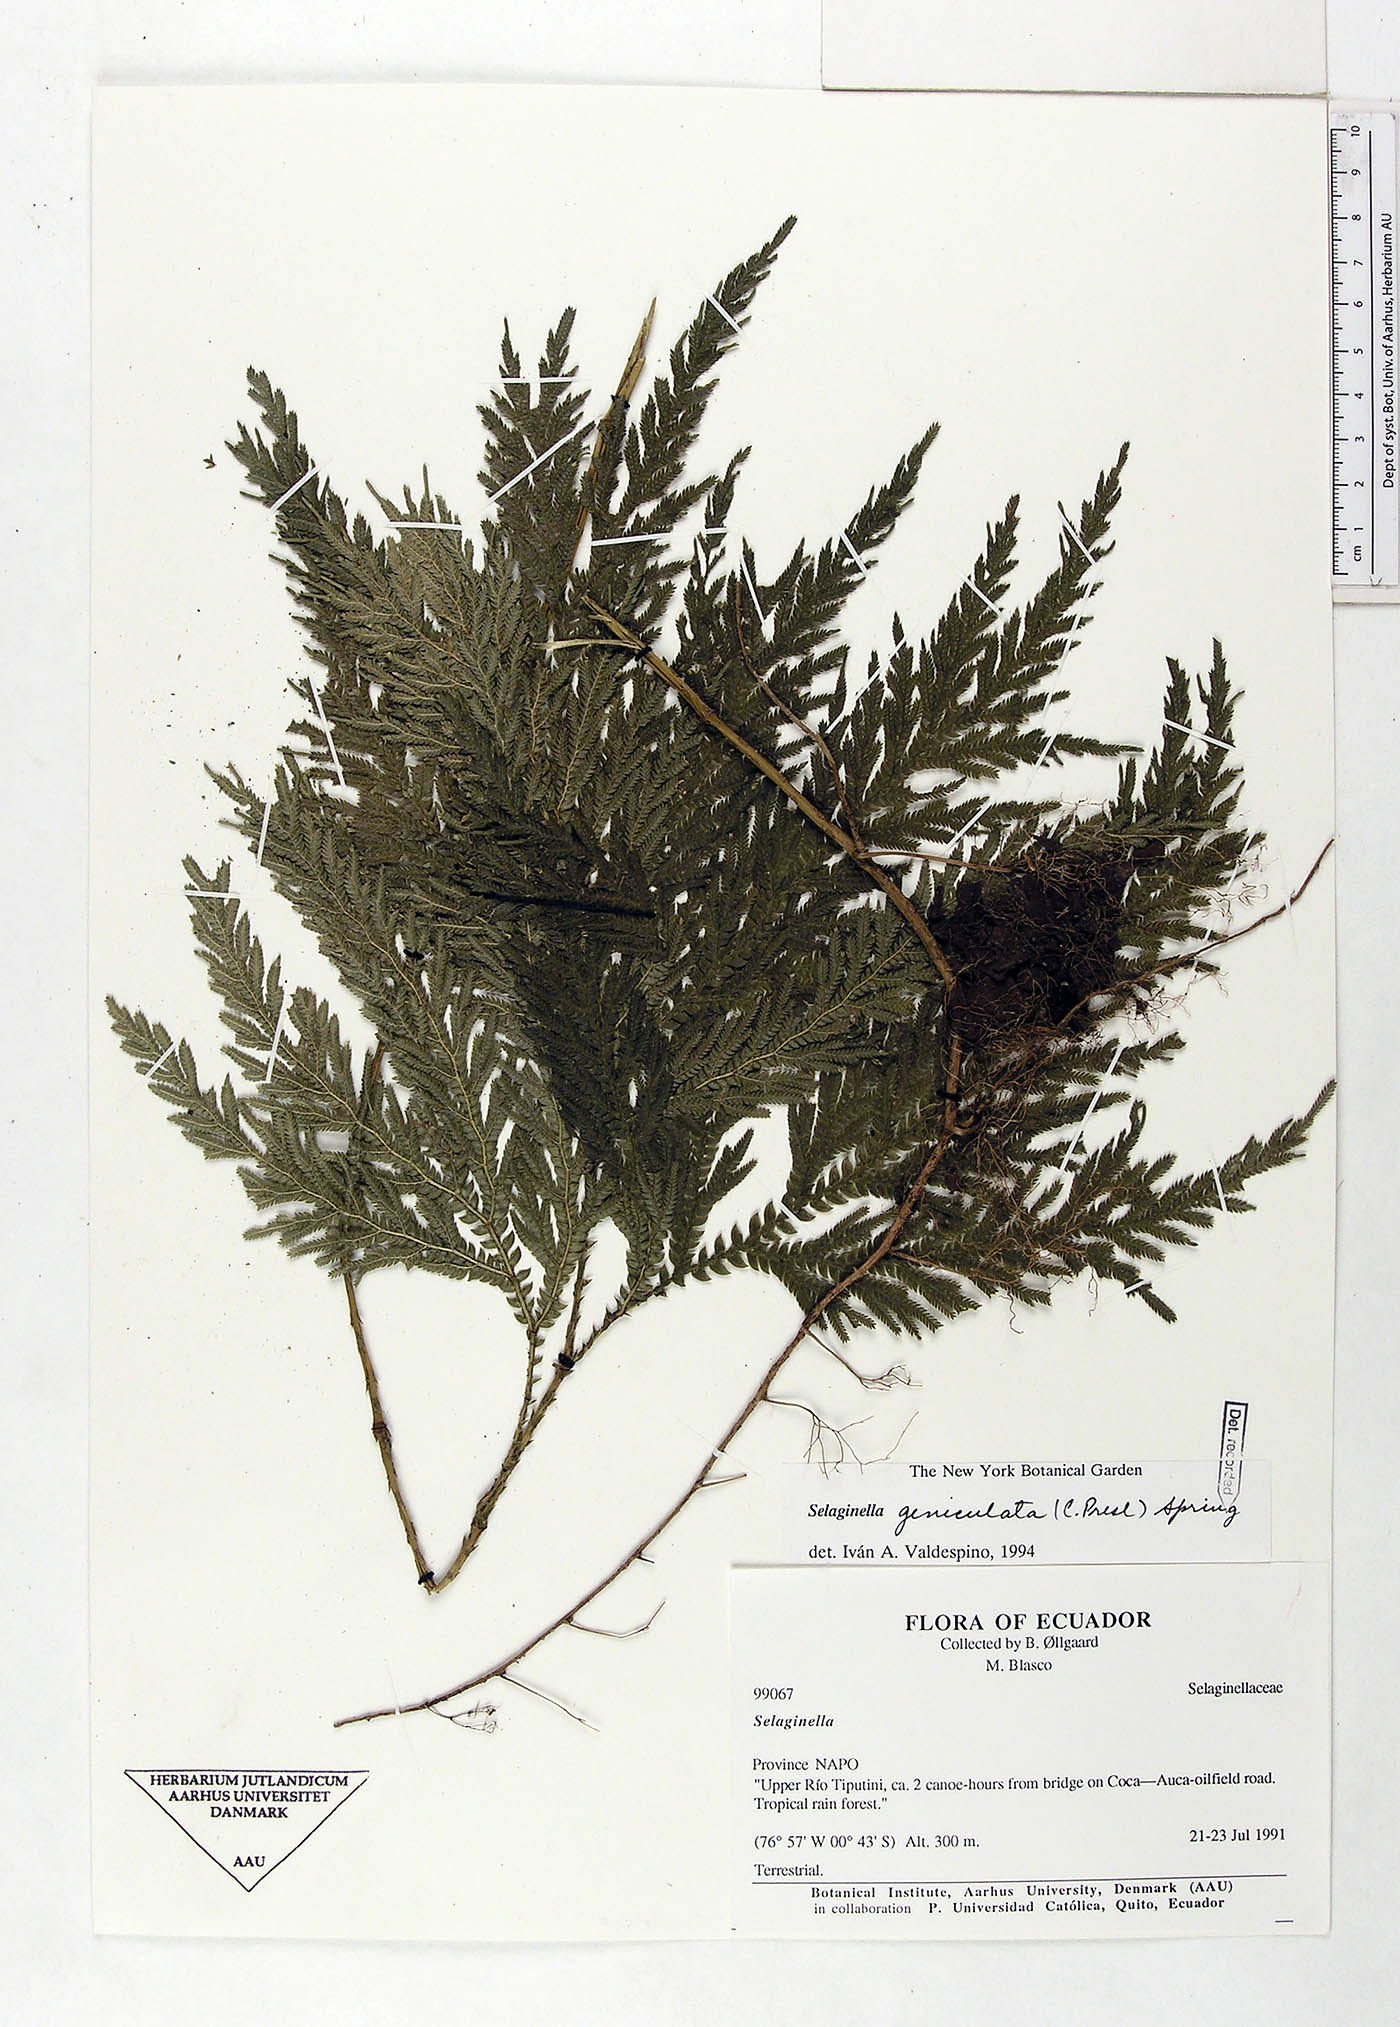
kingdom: Plantae
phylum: Tracheophyta
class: Lycopodiopsida
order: Selaginellales
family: Selaginellaceae
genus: Selaginella
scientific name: Selaginella geniculata
